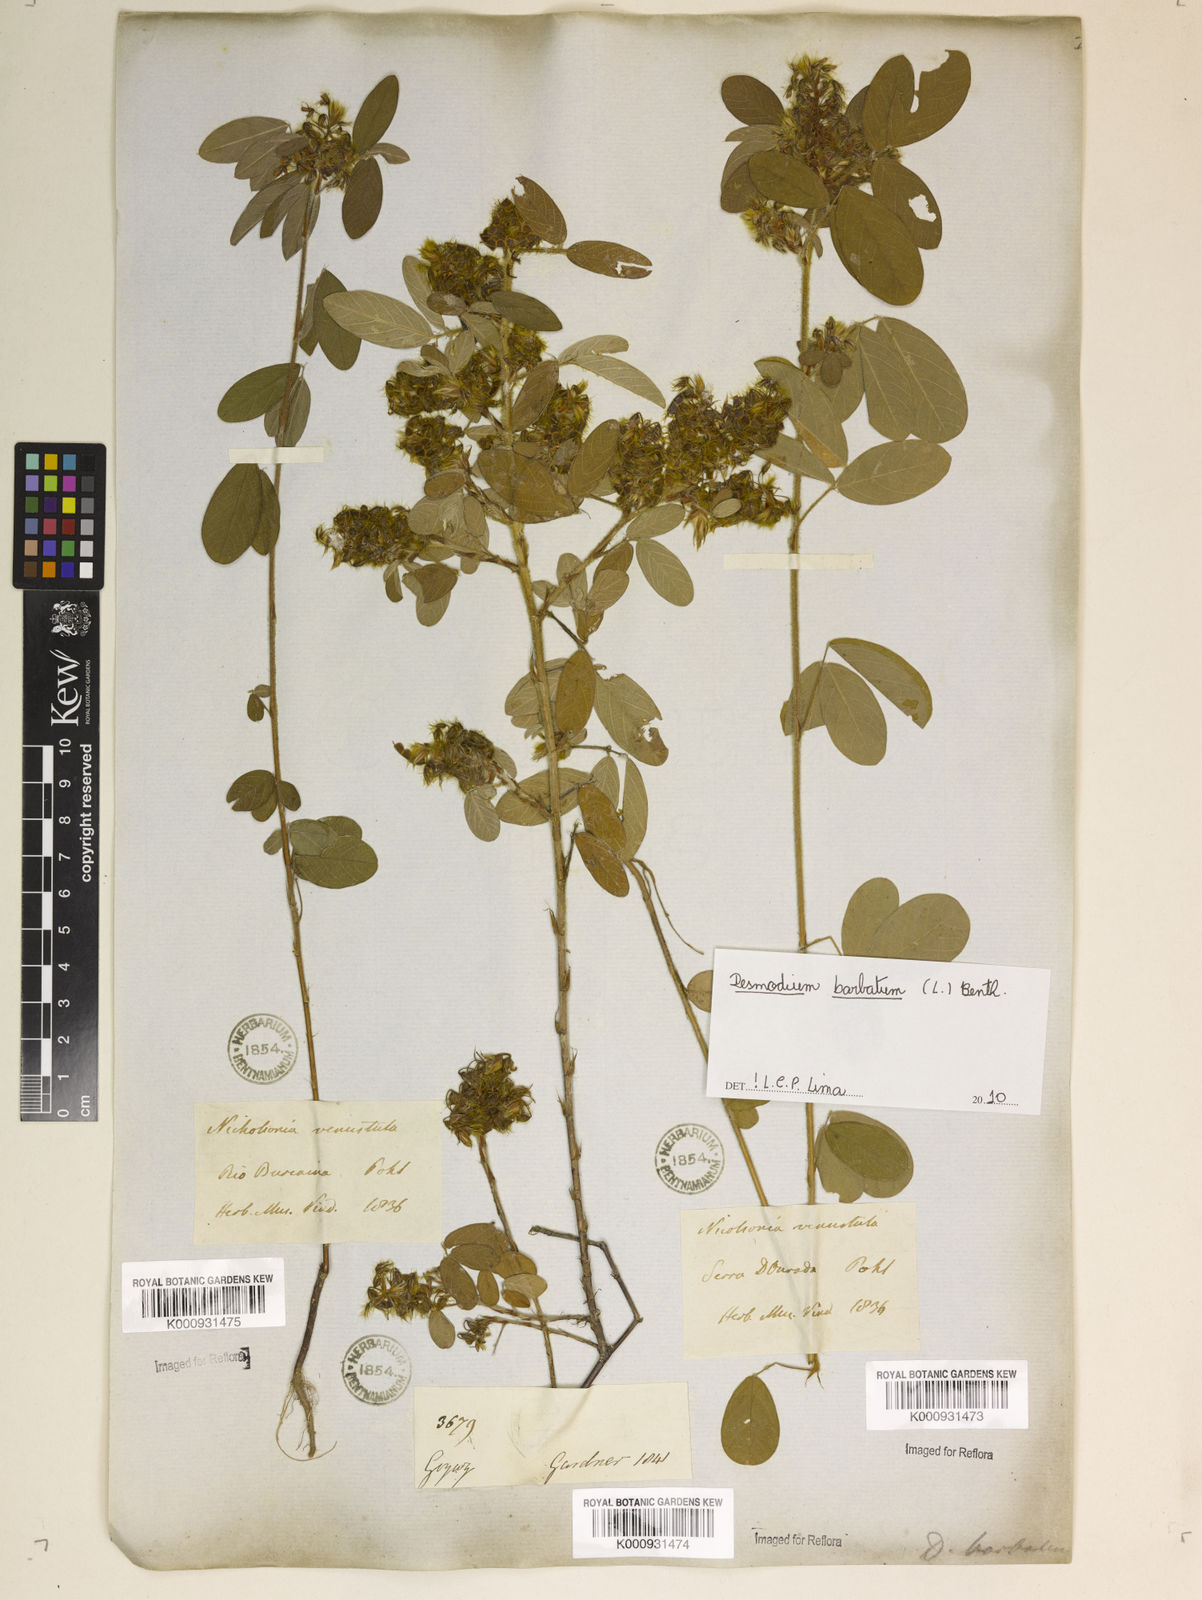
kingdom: Plantae
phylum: Tracheophyta
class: Magnoliopsida
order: Fabales
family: Fabaceae
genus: Grona
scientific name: Grona barbata
